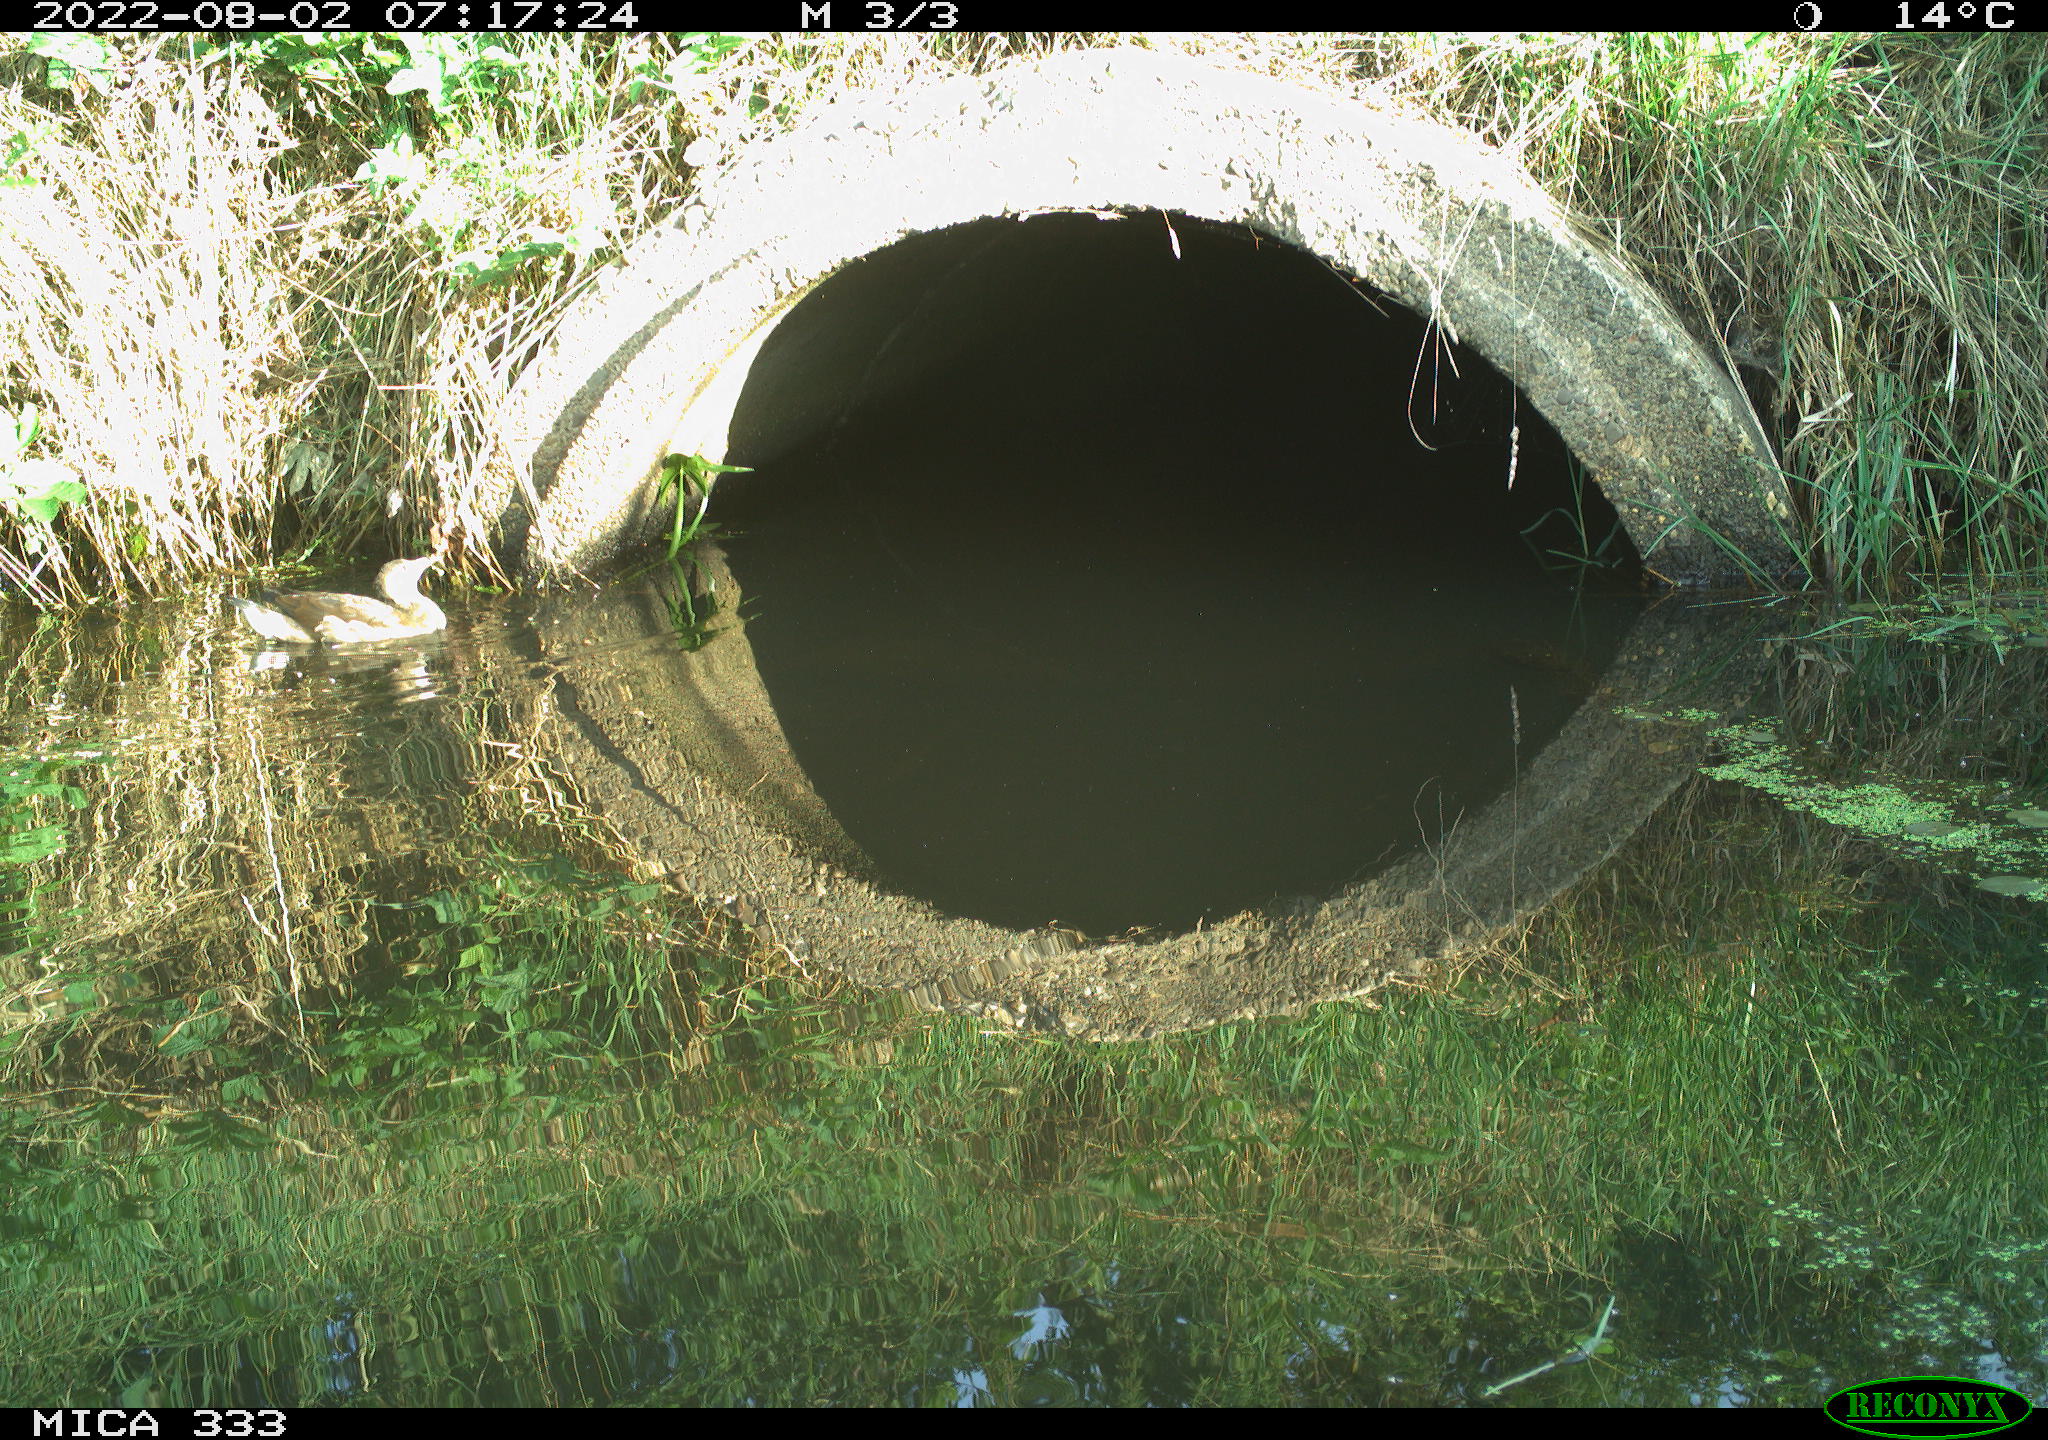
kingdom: Animalia
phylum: Chordata
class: Aves
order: Gruiformes
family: Rallidae
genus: Gallinula
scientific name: Gallinula chloropus
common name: Common moorhen
